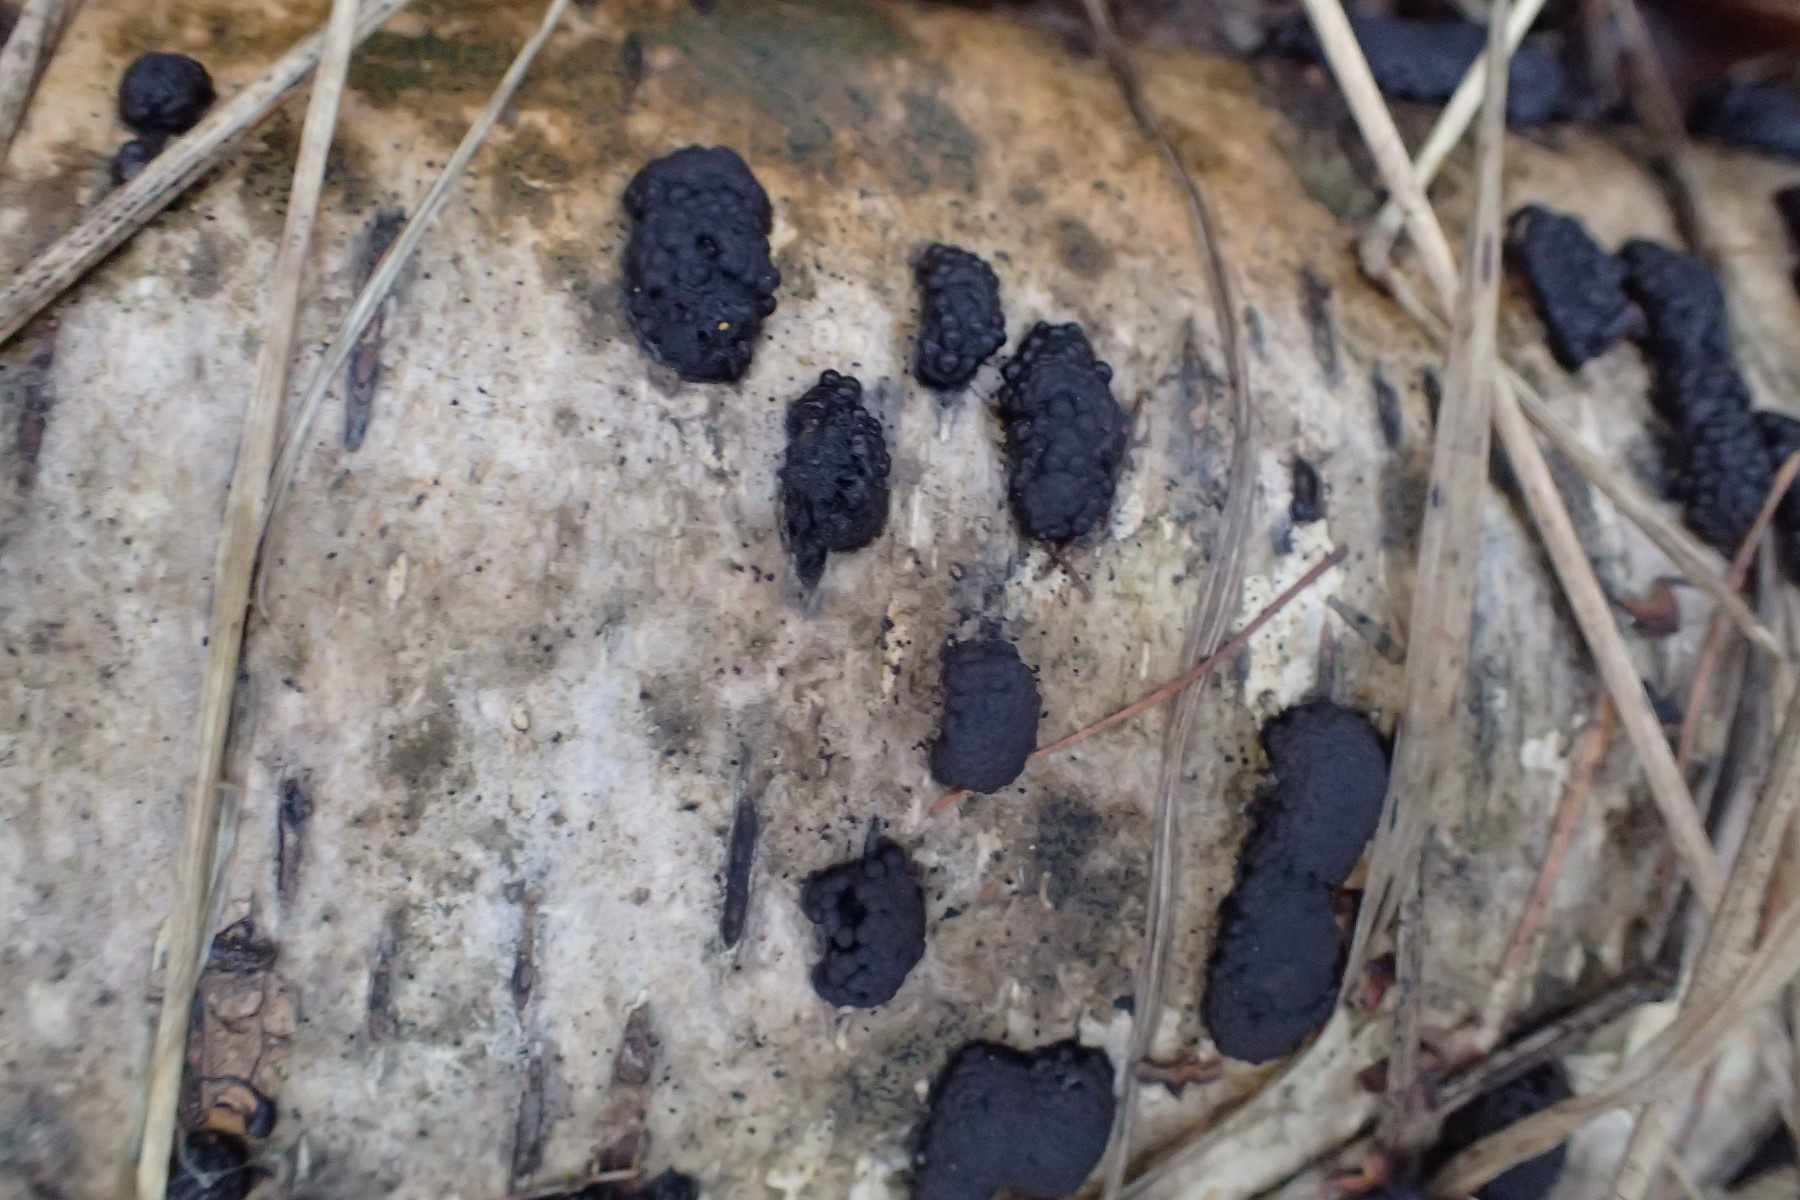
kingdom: Fungi
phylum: Ascomycota
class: Sordariomycetes
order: Xylariales
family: Hypoxylaceae
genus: Jackrogersella
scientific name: Jackrogersella multiformis
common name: foranderlig kulbær
